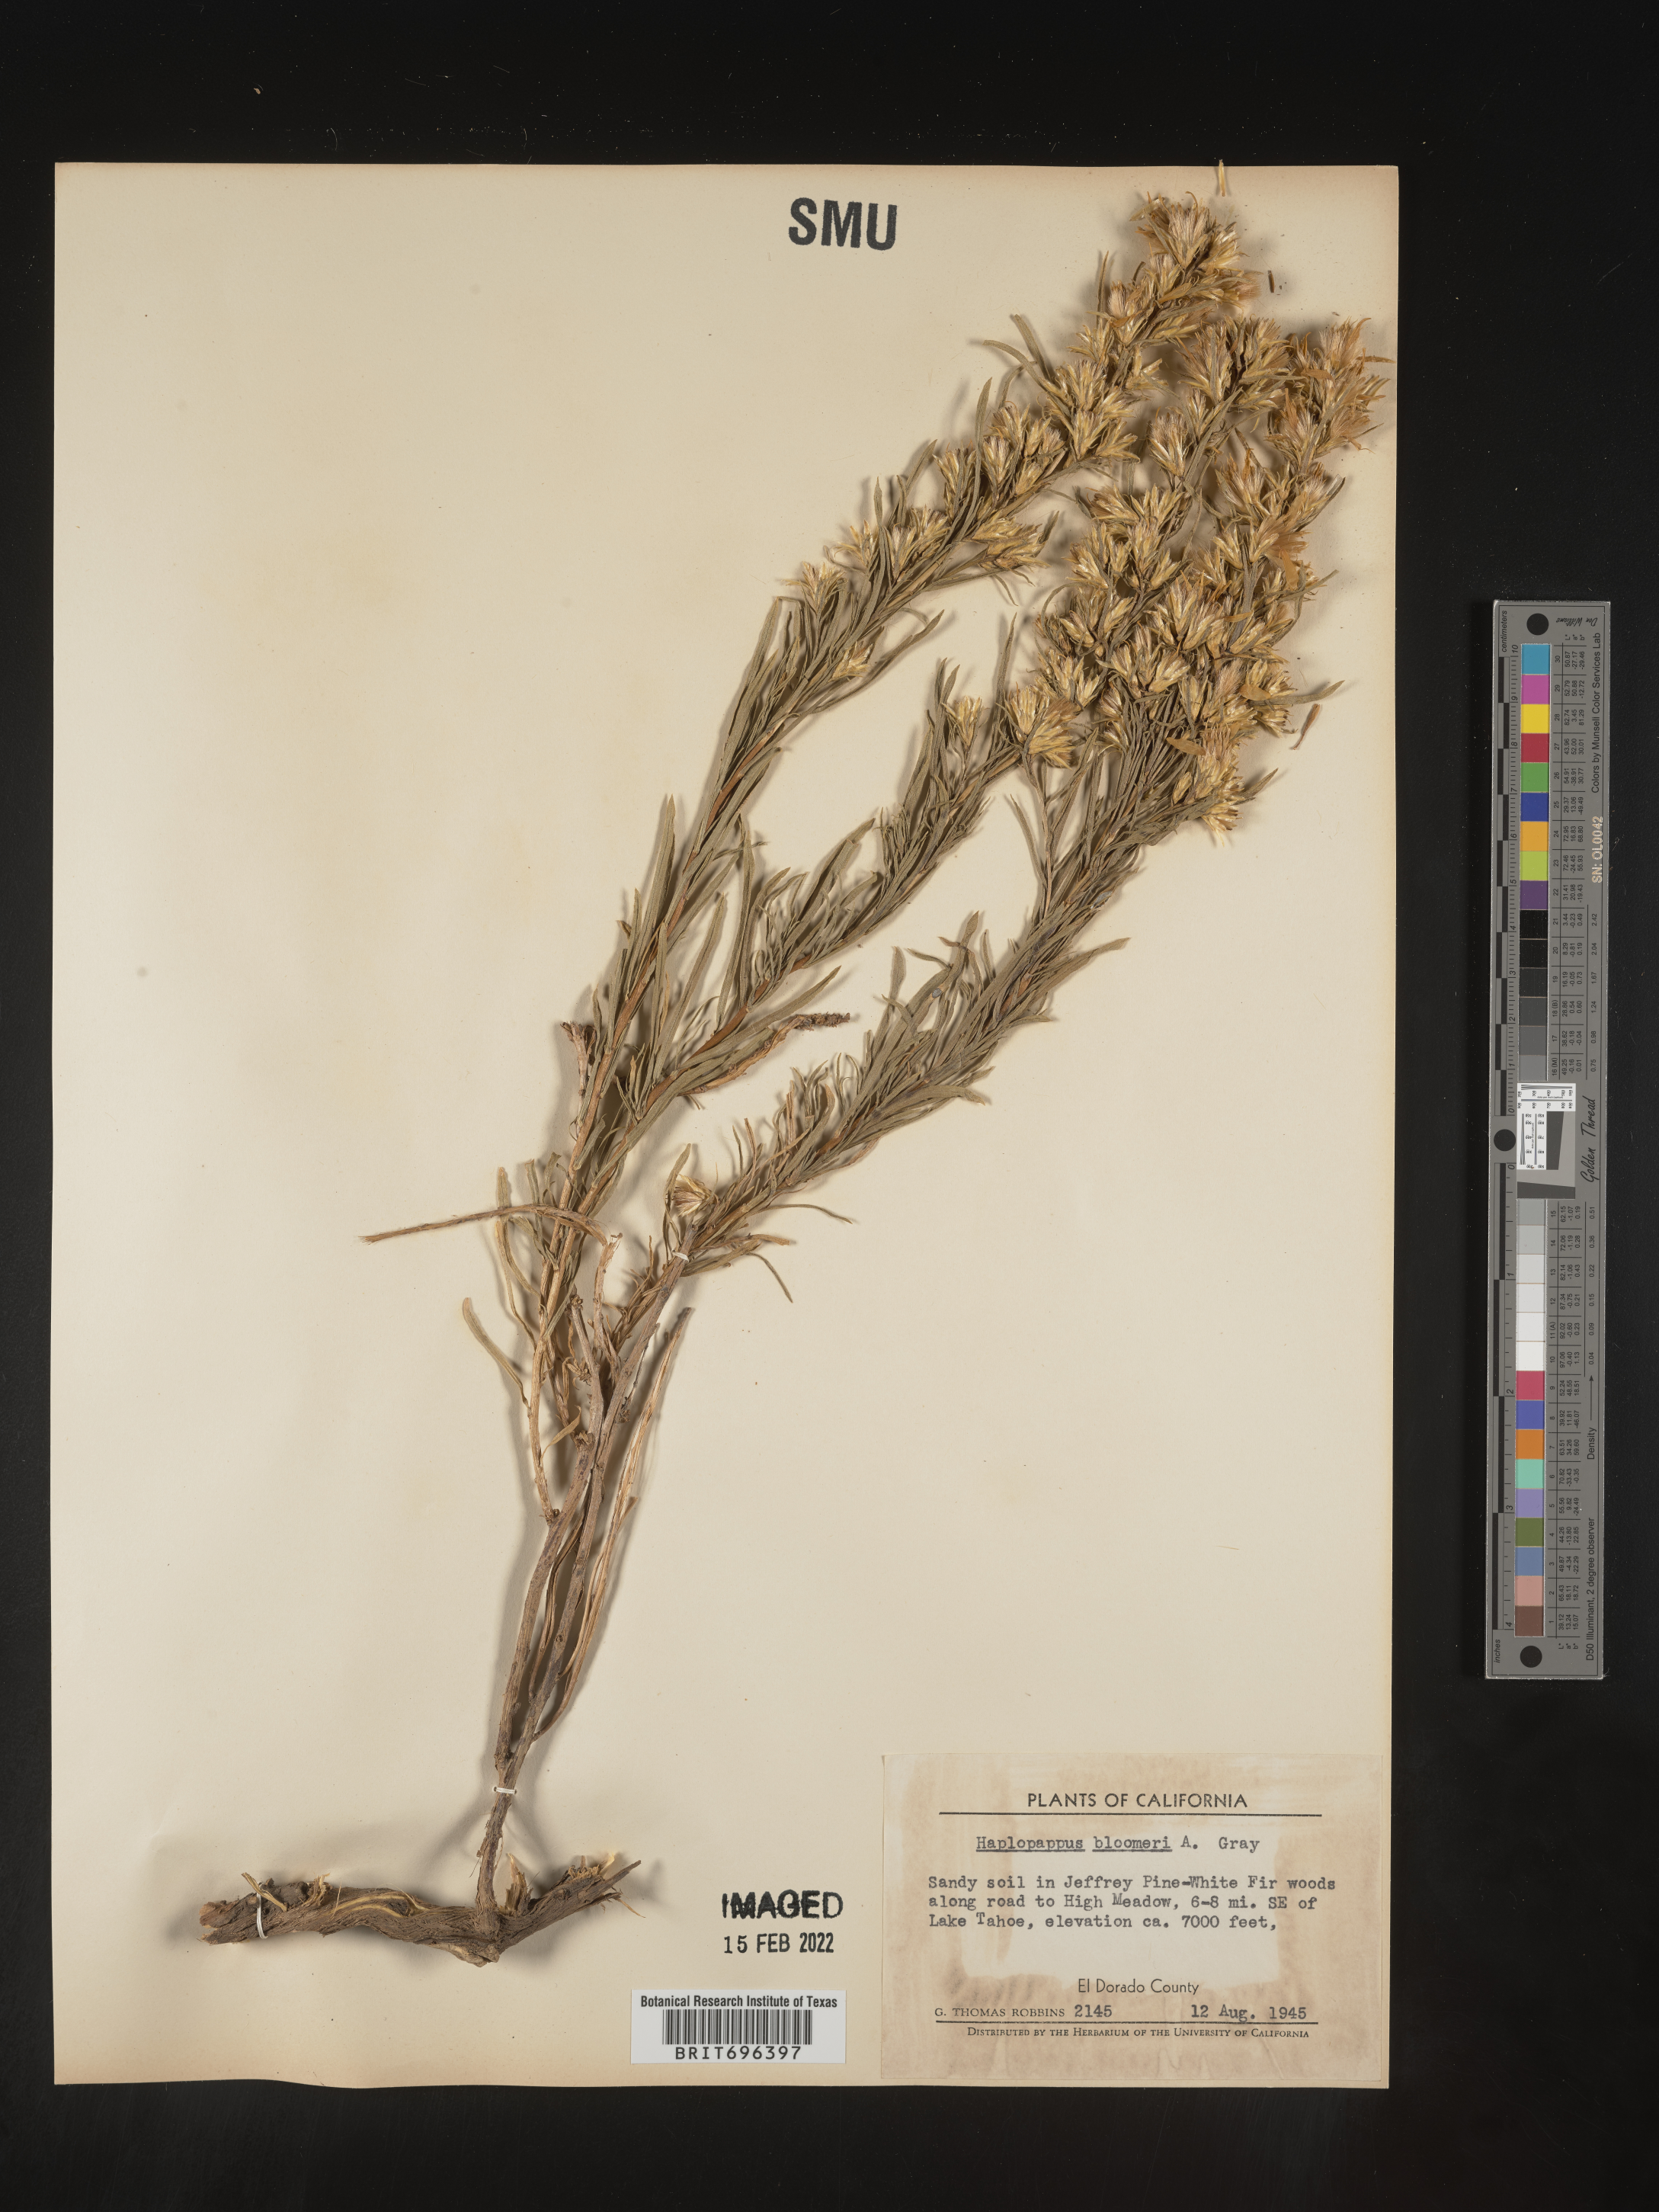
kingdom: Plantae
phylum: Tracheophyta
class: Magnoliopsida
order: Asterales
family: Asteraceae
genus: Ericameria
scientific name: Ericameria bloomeri
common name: Bloomer's goldenbush
